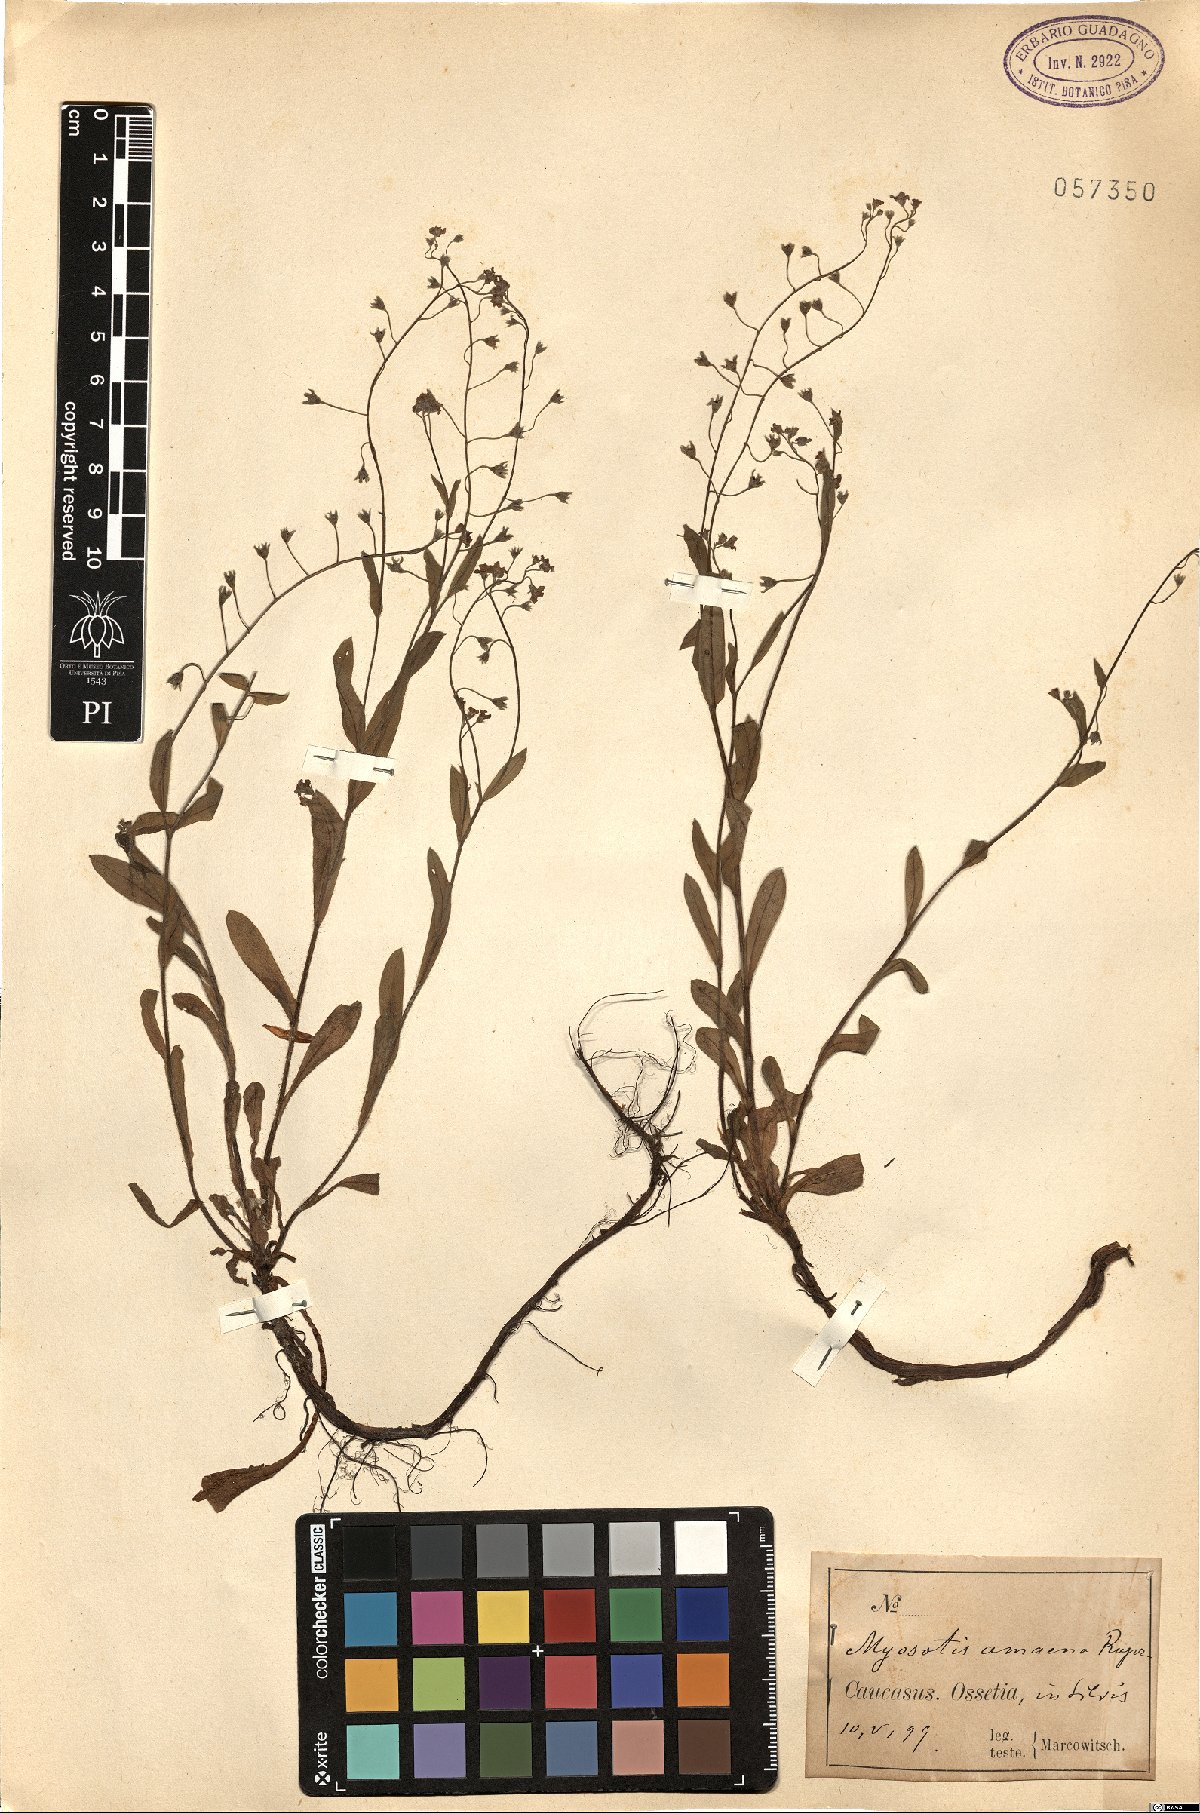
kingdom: Plantae
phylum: Tracheophyta
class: Magnoliopsida
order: Boraginales
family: Boraginaceae
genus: Myosotis
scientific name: Myosotis dissitiflora
